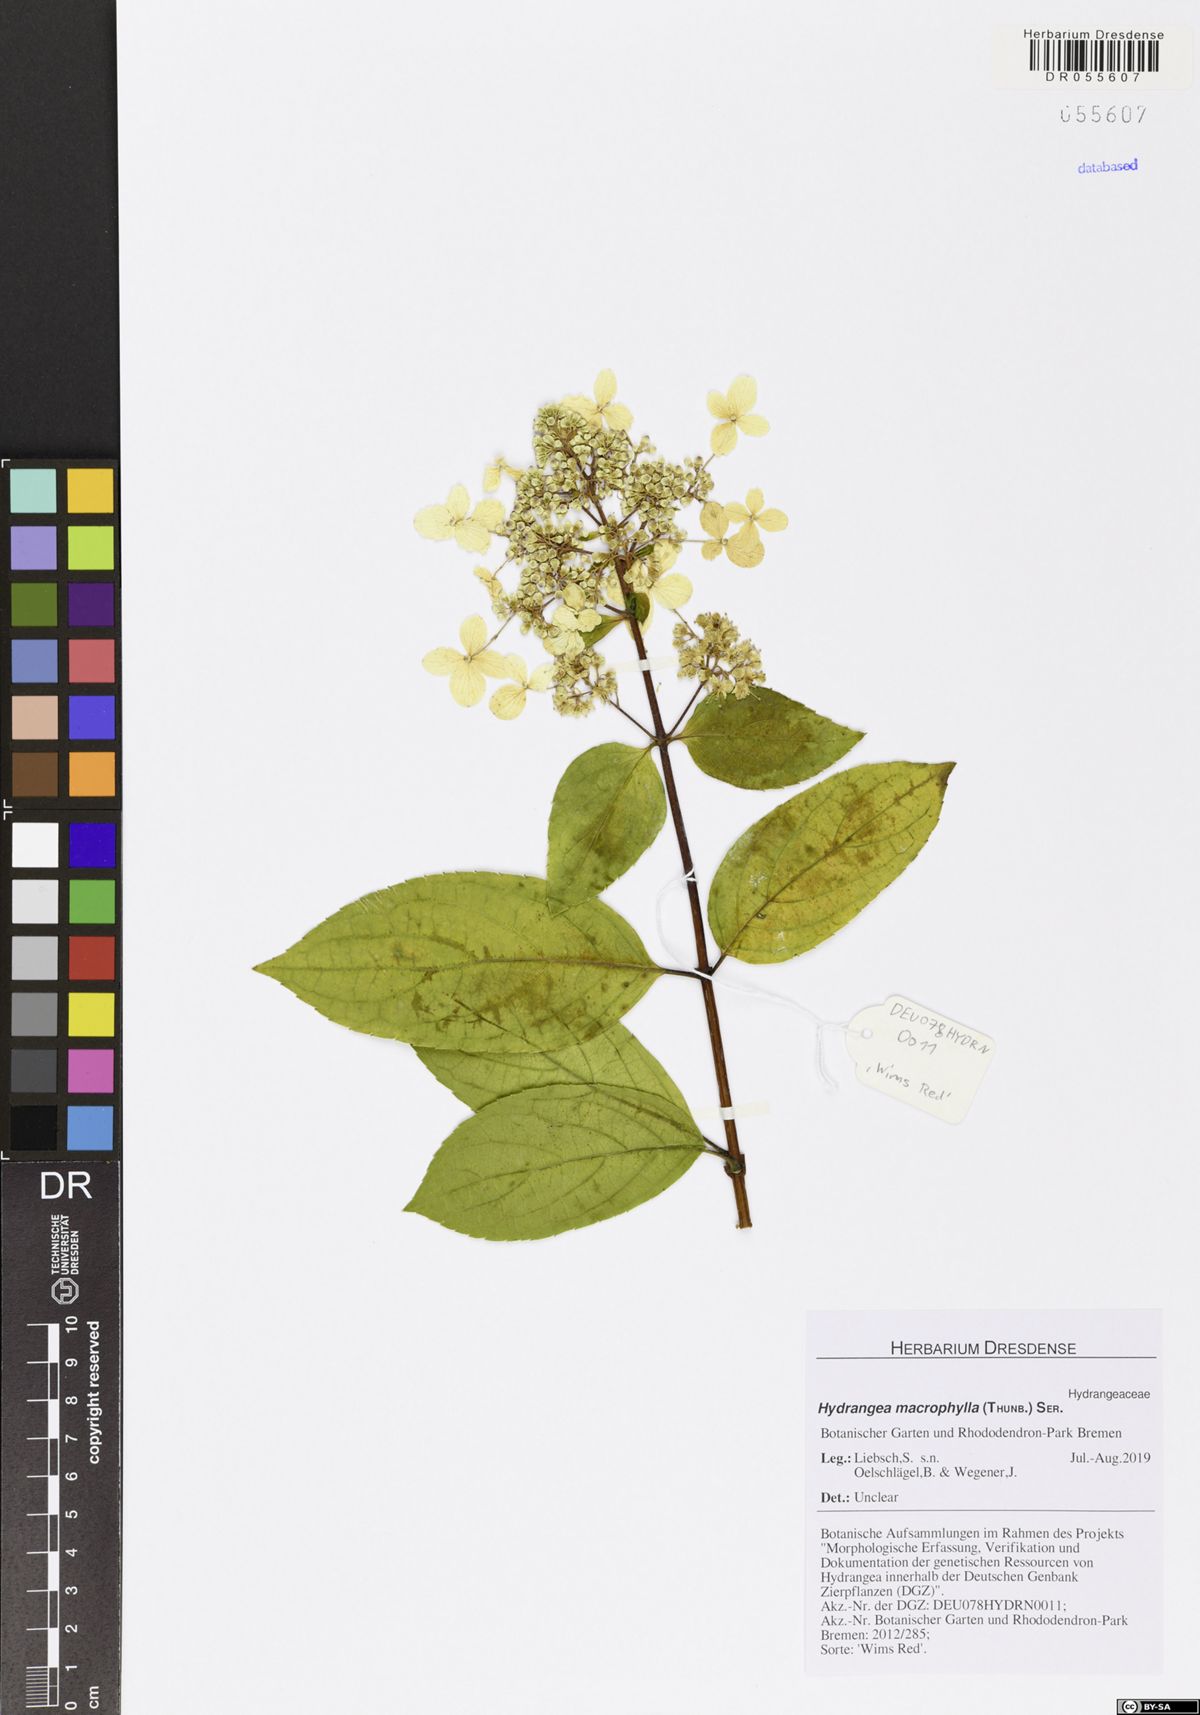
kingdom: Plantae
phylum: Tracheophyta
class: Magnoliopsida
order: Cornales
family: Hydrangeaceae
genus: Hydrangea
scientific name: Hydrangea macrophylla
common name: Hydrangea
